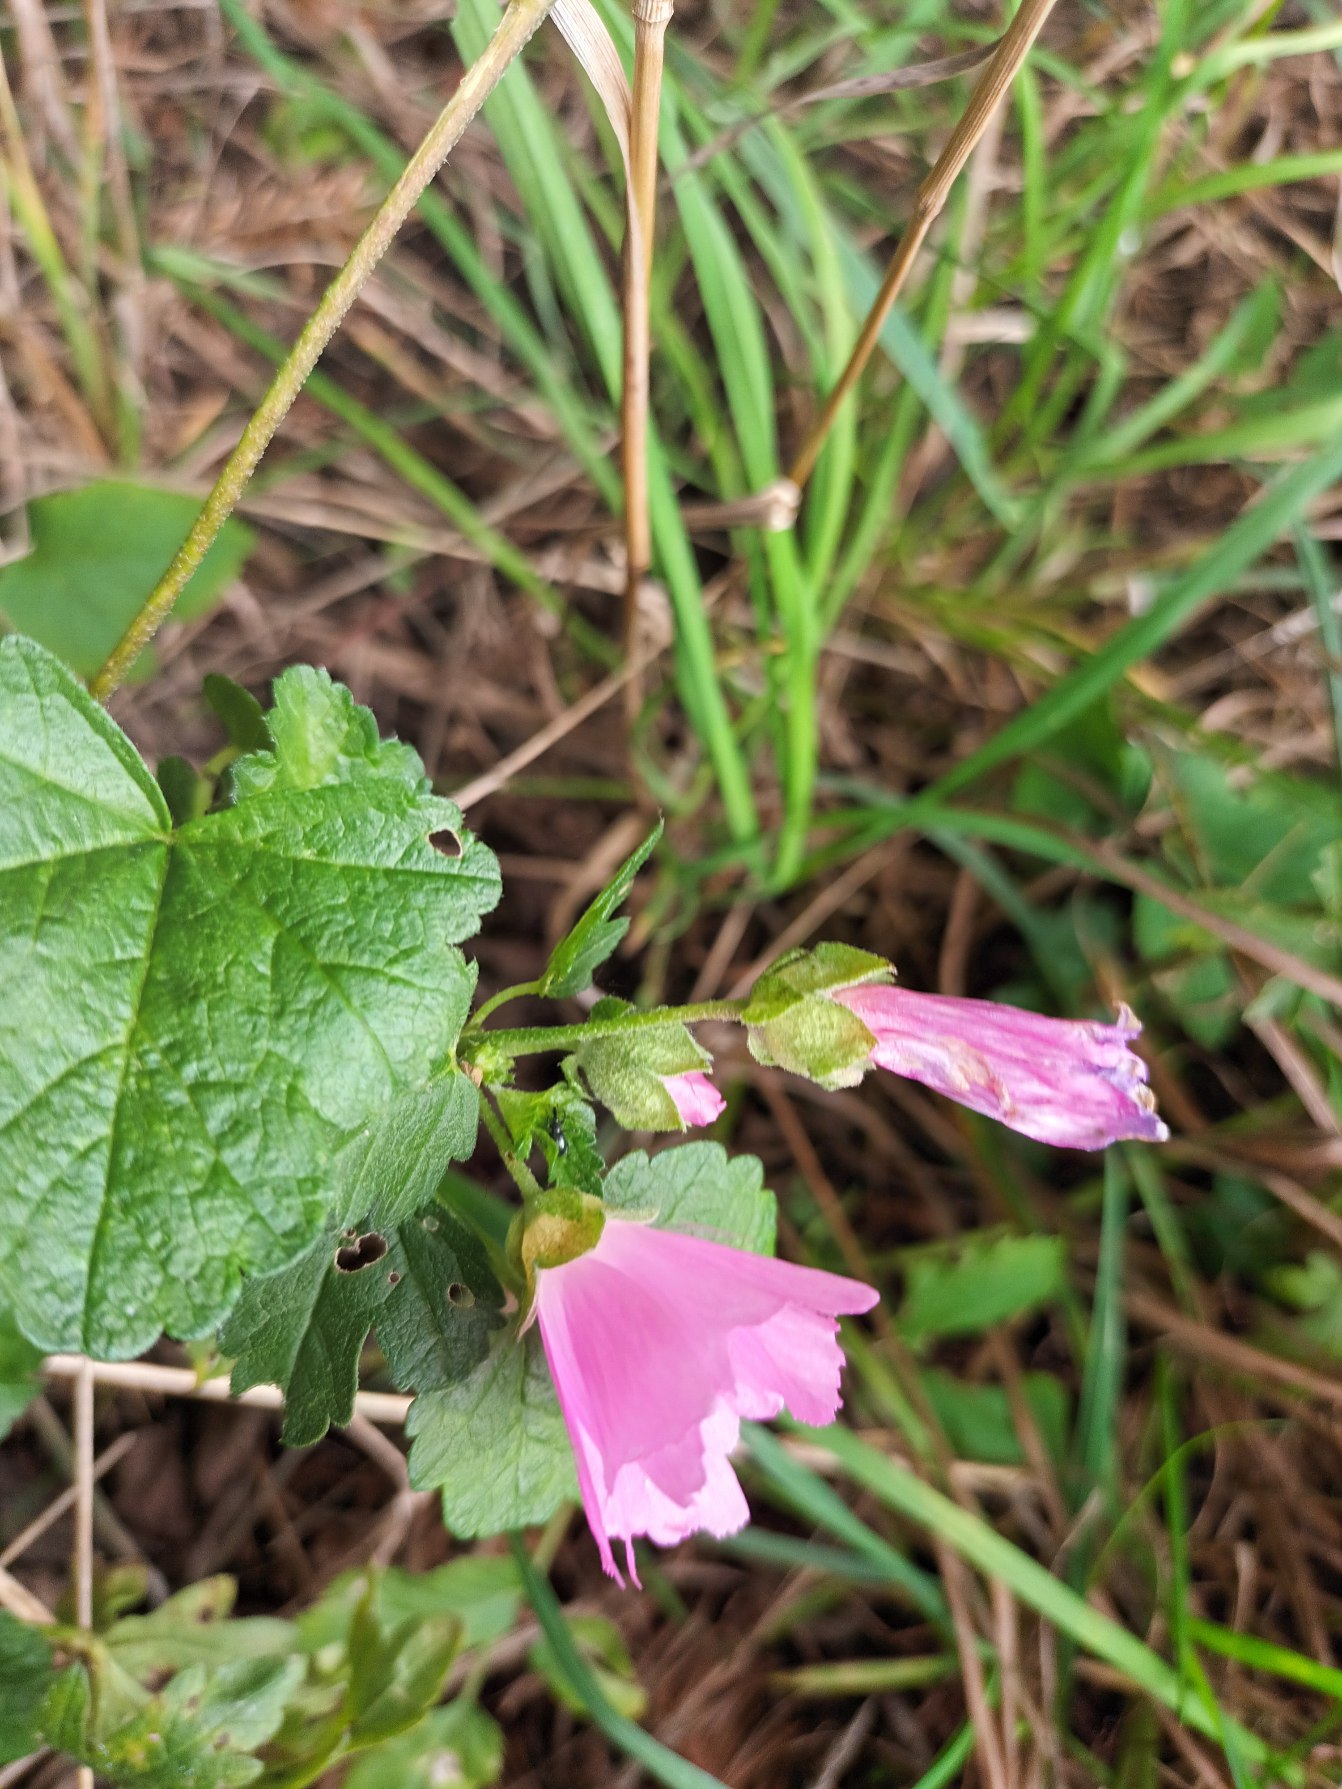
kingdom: Plantae
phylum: Tracheophyta
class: Magnoliopsida
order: Malvales
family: Malvaceae
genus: Malva
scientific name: Malva alcea
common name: Rosen-katost
